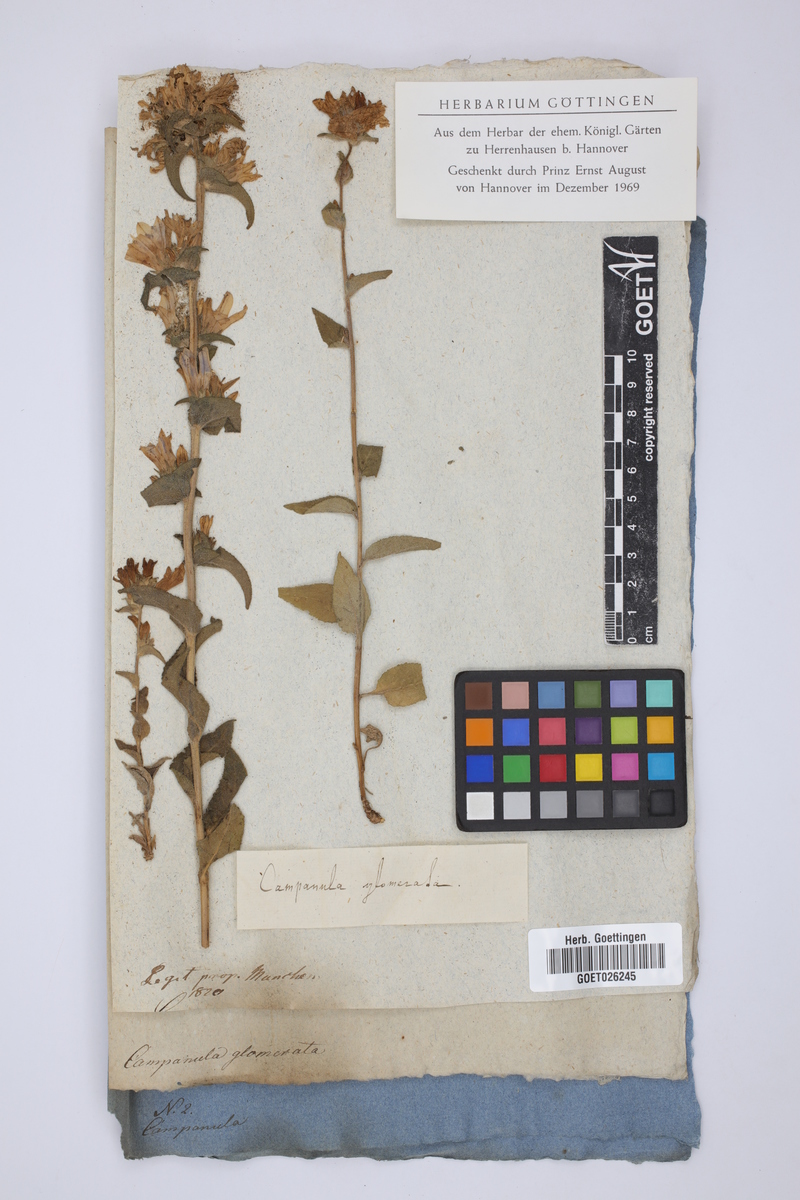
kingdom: Plantae
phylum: Tracheophyta
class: Magnoliopsida
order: Asterales
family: Campanulaceae
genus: Campanula
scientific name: Campanula glomerata
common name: Clustered bellflower
